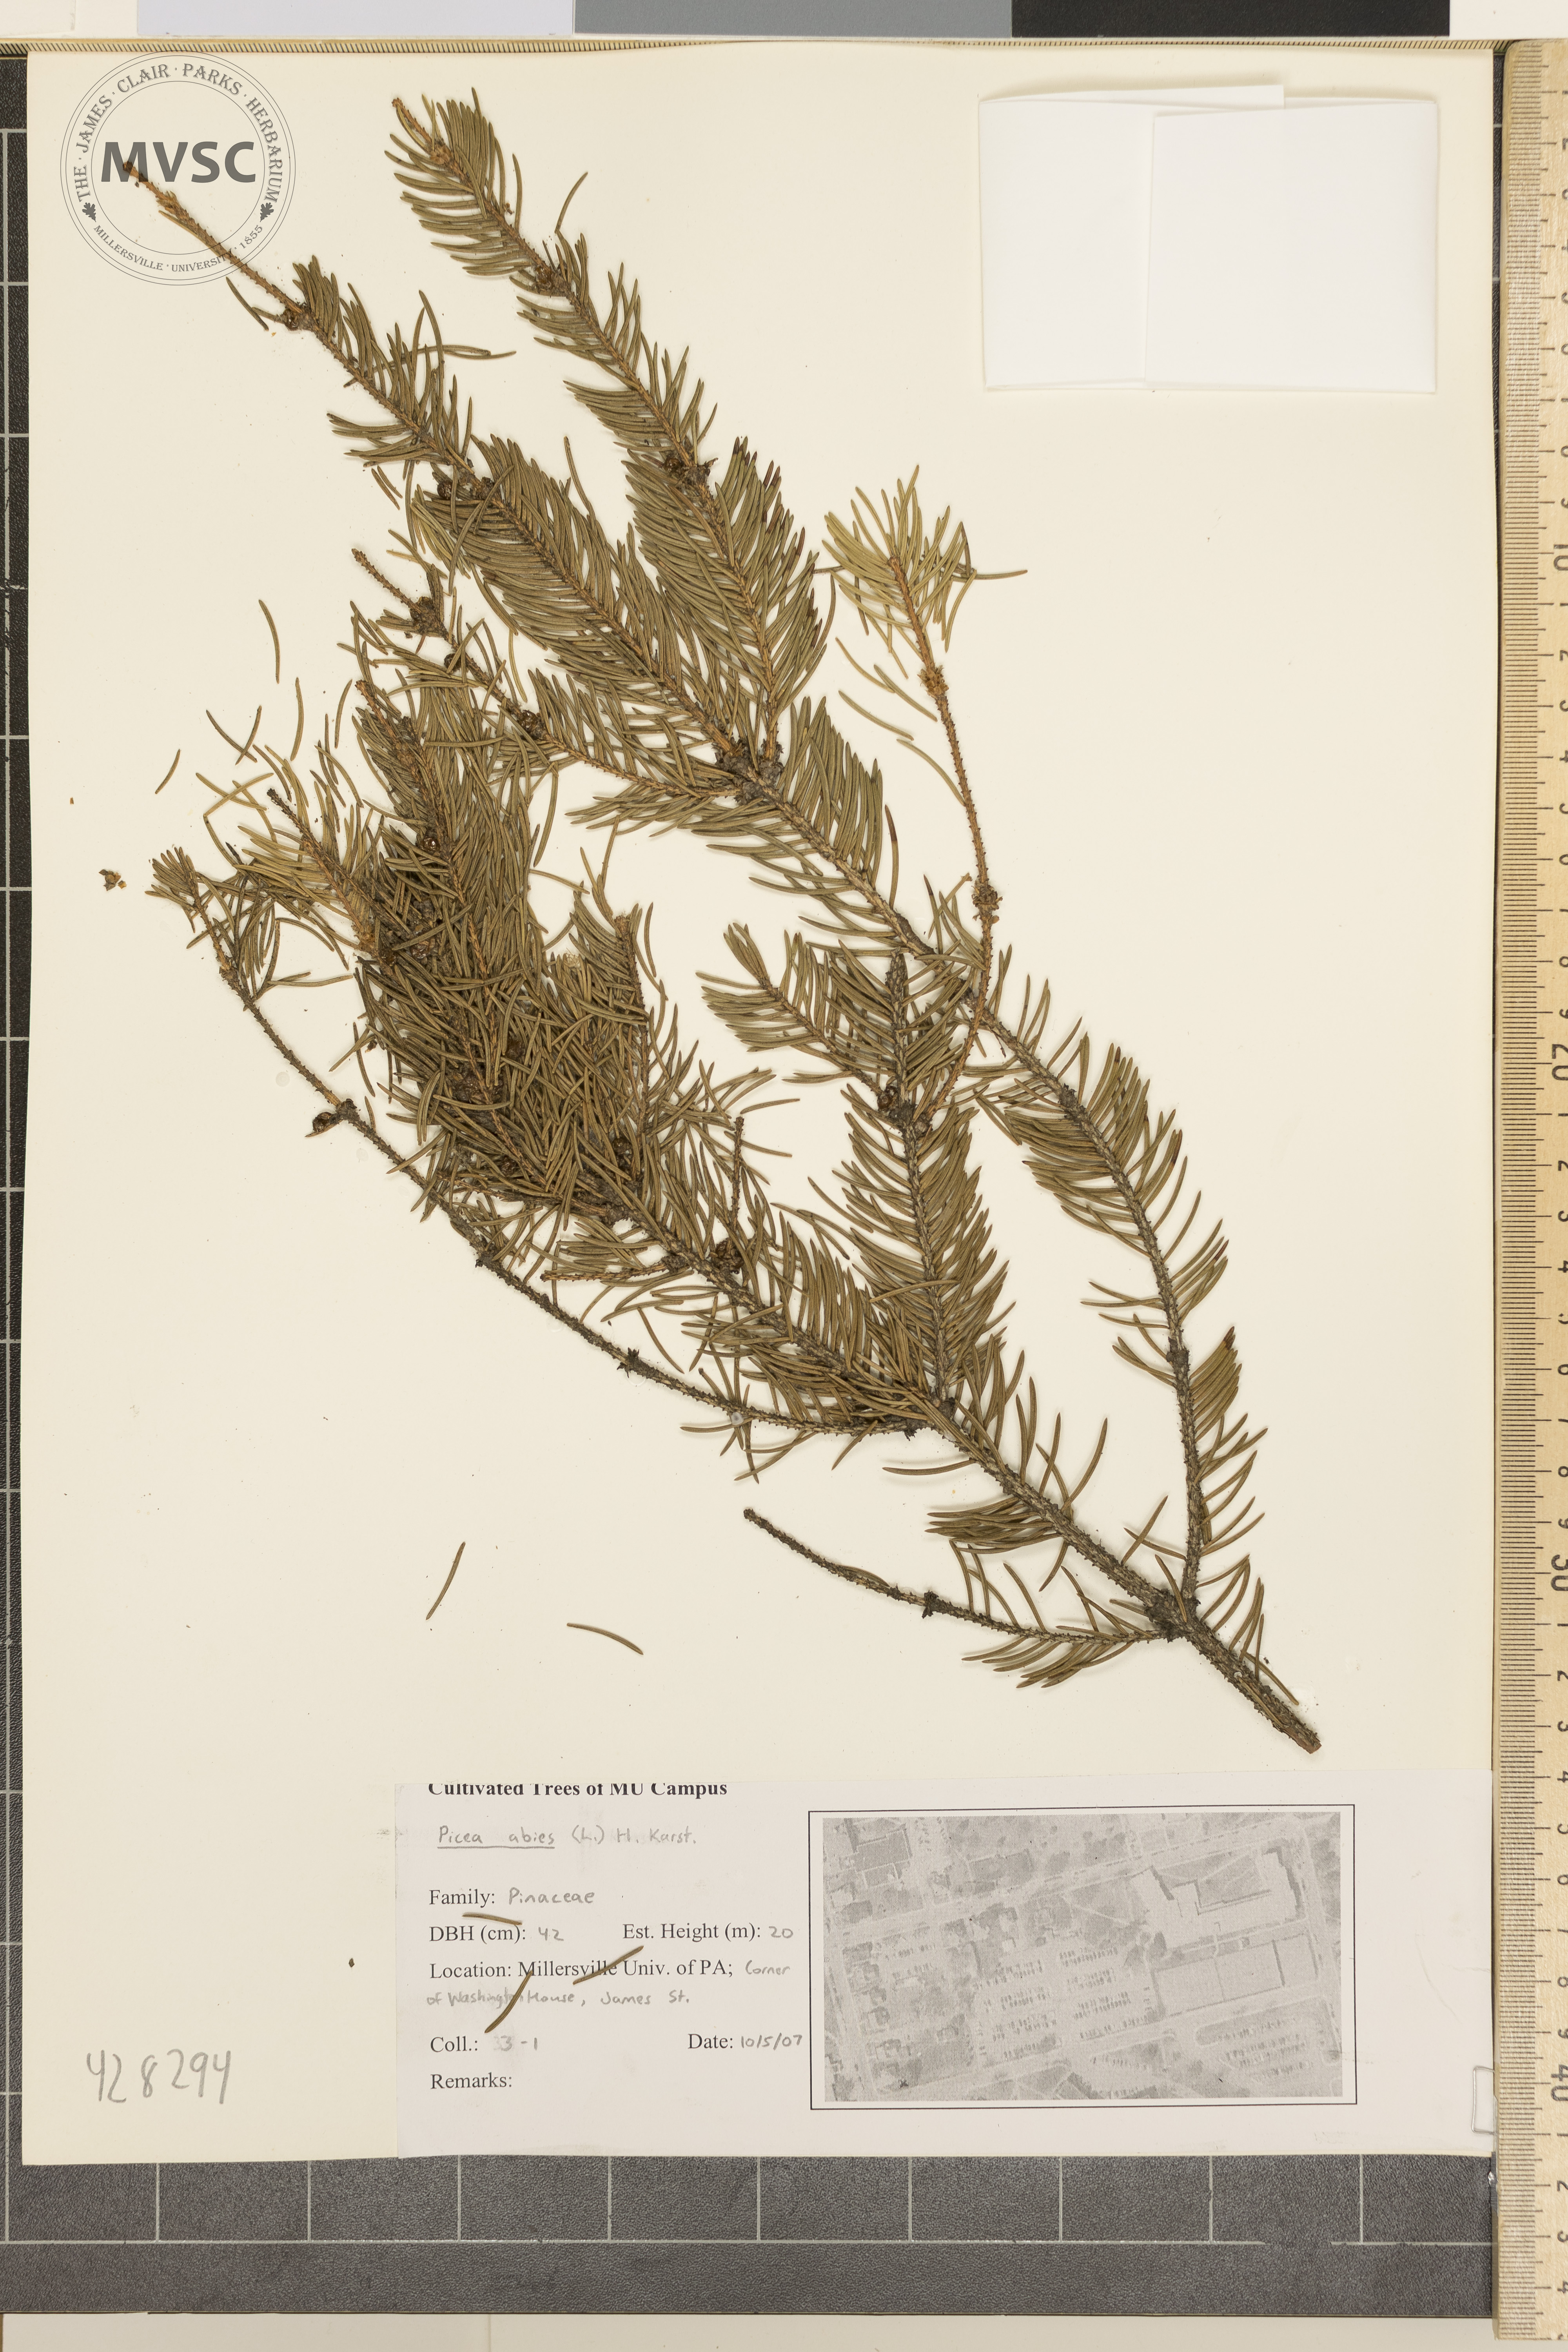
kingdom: Plantae
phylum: Tracheophyta
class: Pinopsida
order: Pinales
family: Pinaceae
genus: Picea
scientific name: Picea abies
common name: Norway spruce
